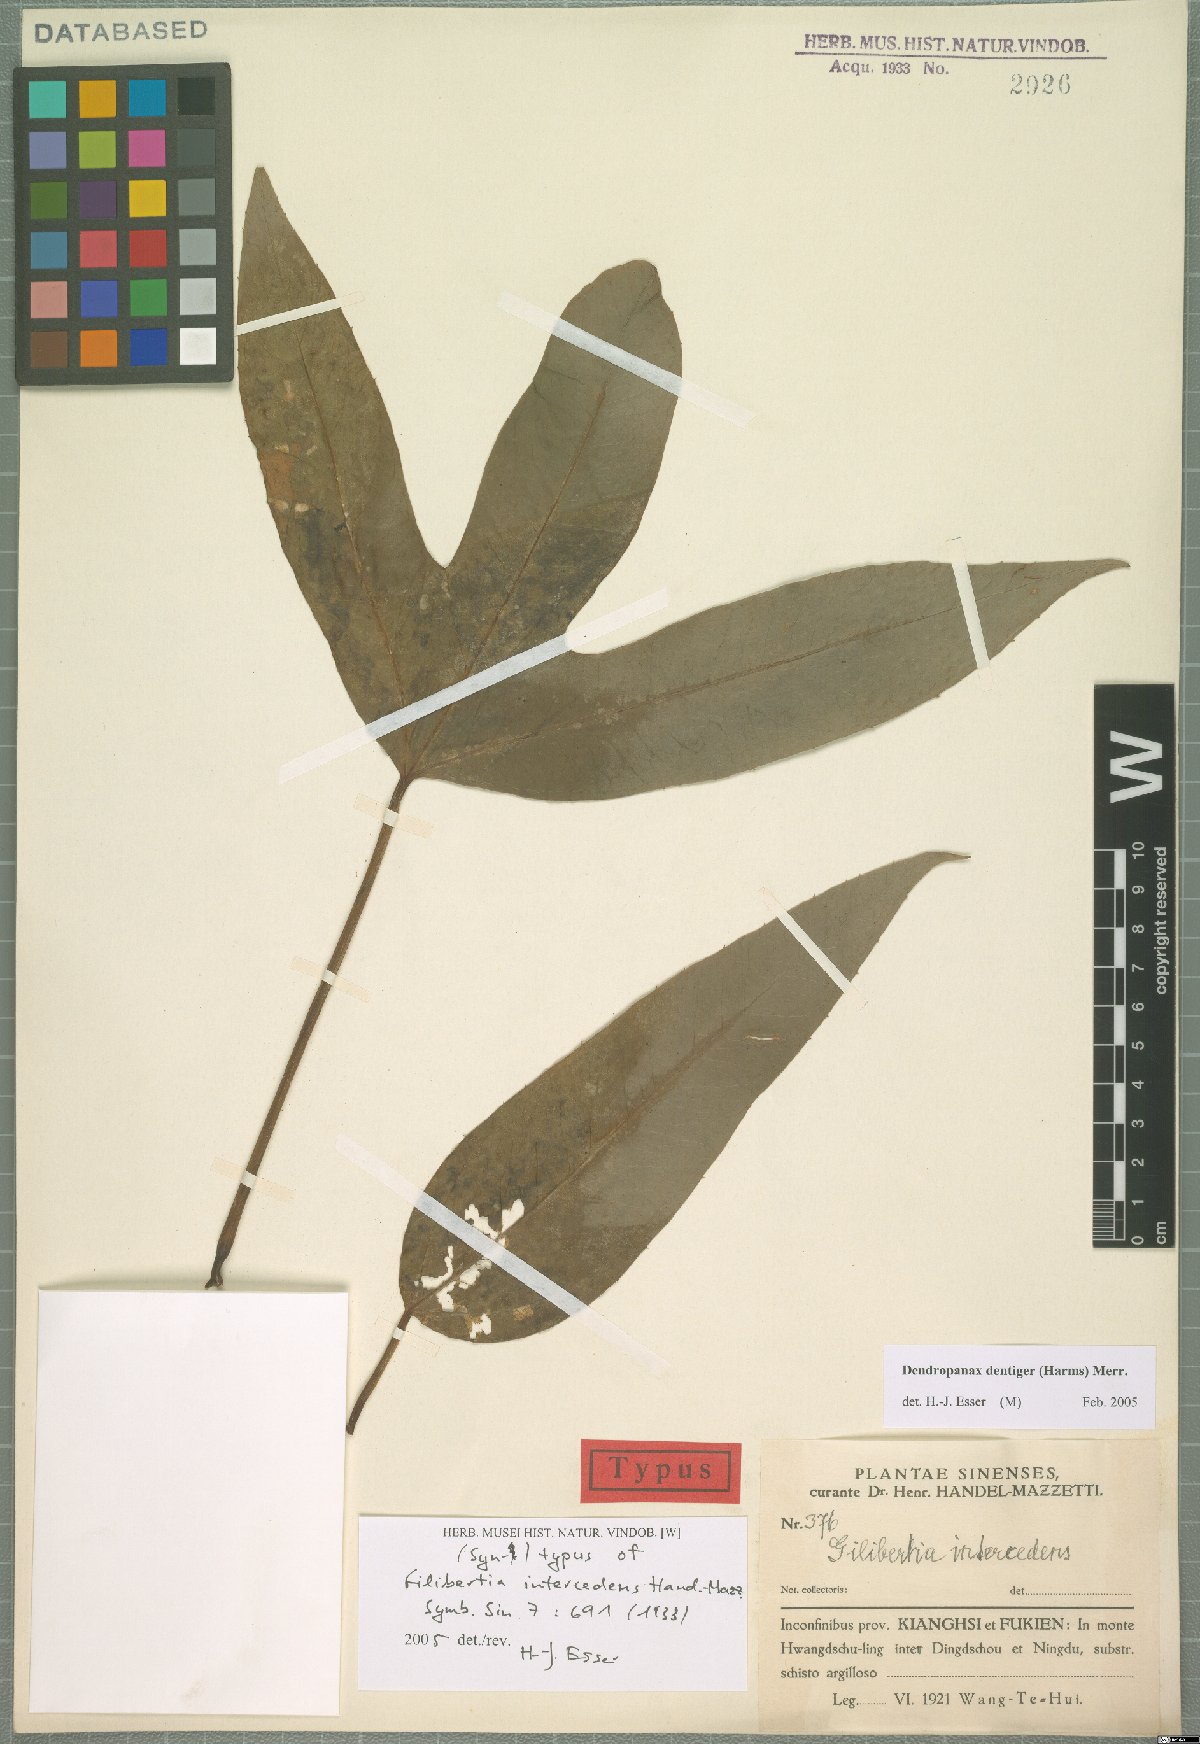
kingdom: Plantae
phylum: Tracheophyta
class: Magnoliopsida
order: Apiales
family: Araliaceae
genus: Dendropanax
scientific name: Dendropanax dentiger
